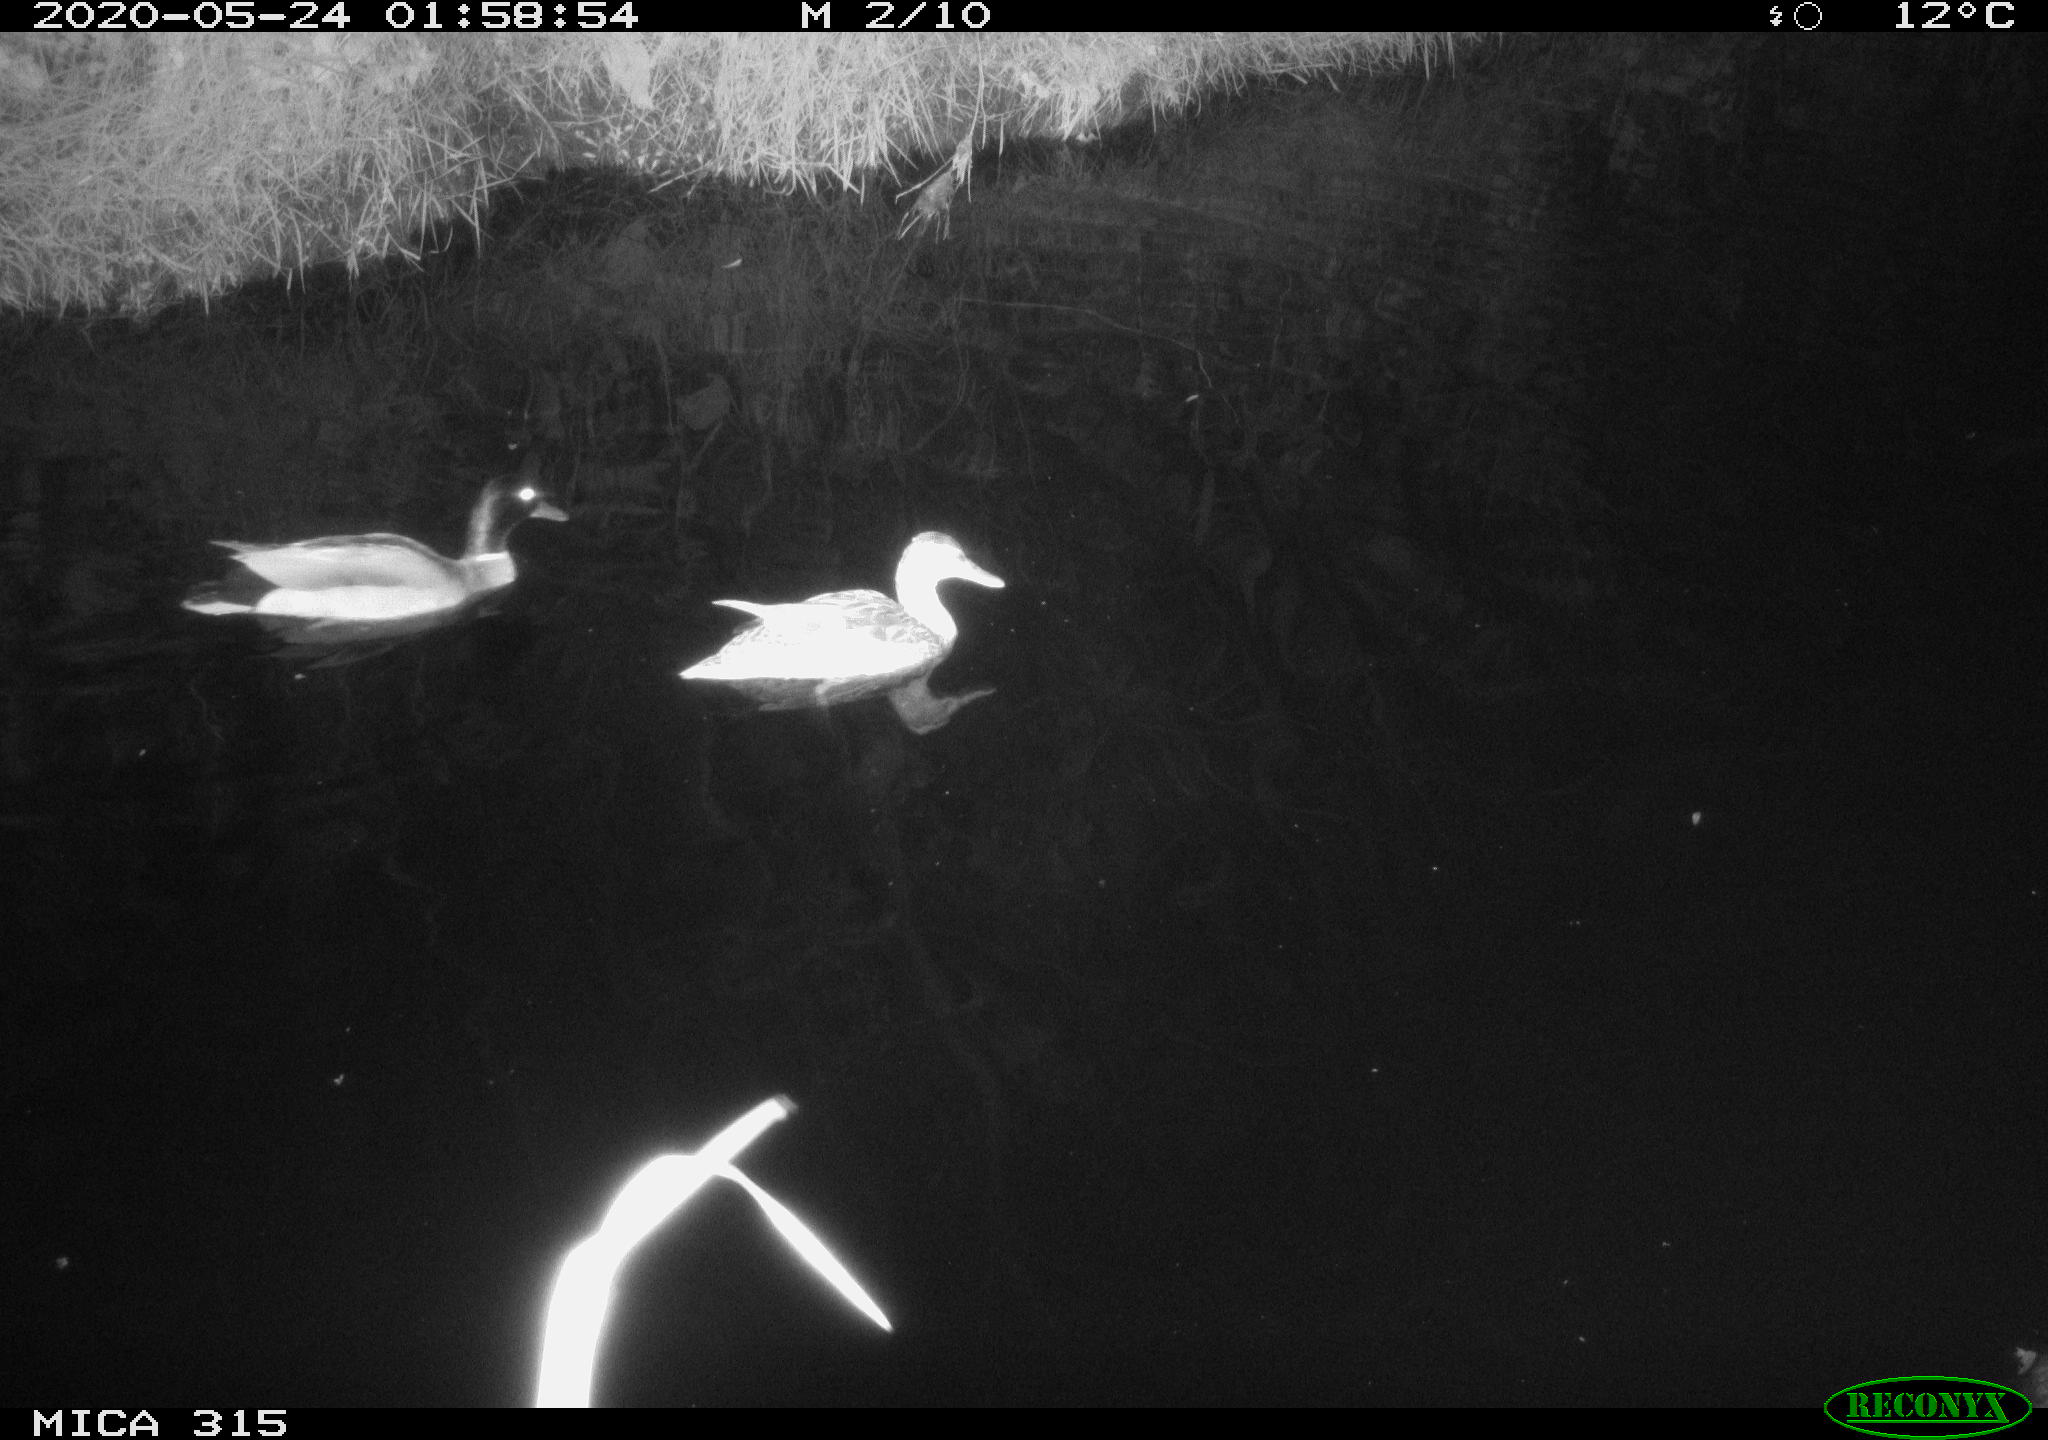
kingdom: Animalia
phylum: Chordata
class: Aves
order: Anseriformes
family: Anatidae
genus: Anas
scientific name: Anas platyrhynchos
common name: Mallard
